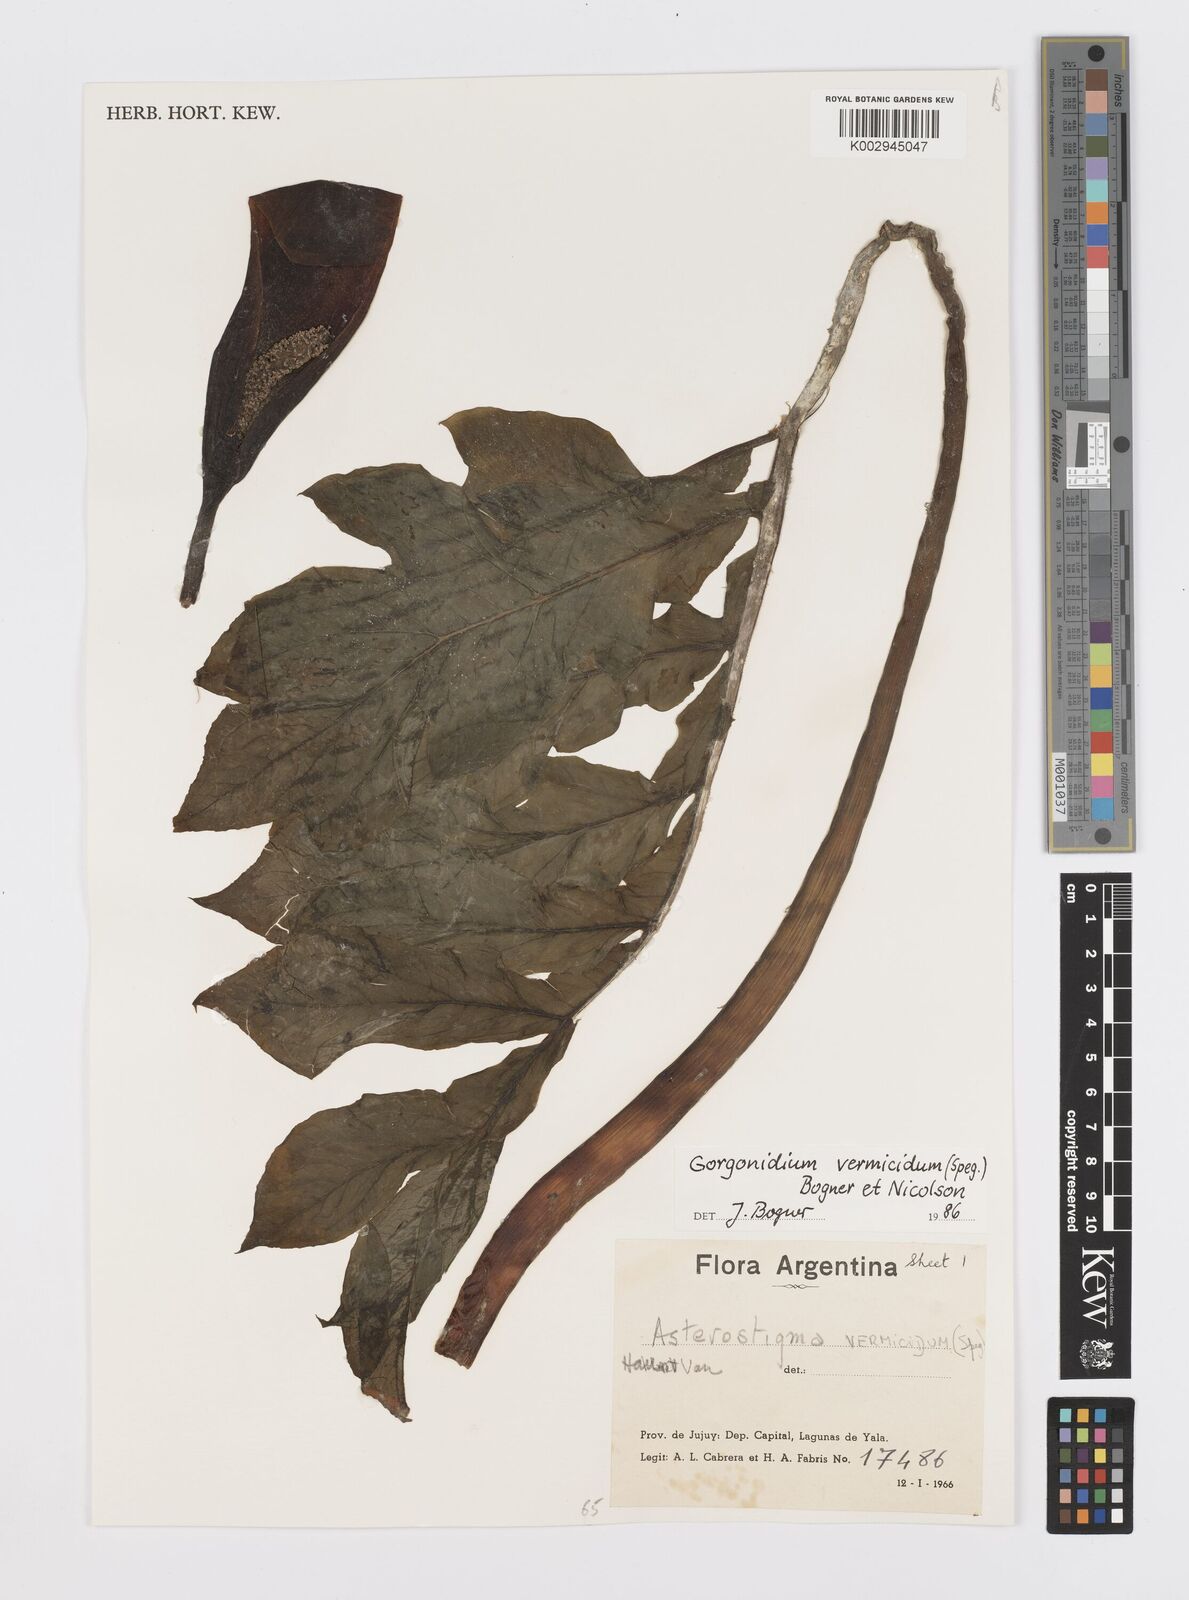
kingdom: Plantae
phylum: Tracheophyta
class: Liliopsida
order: Alismatales
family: Araceae
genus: Gorgonidium
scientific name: Gorgonidium vermicidum
